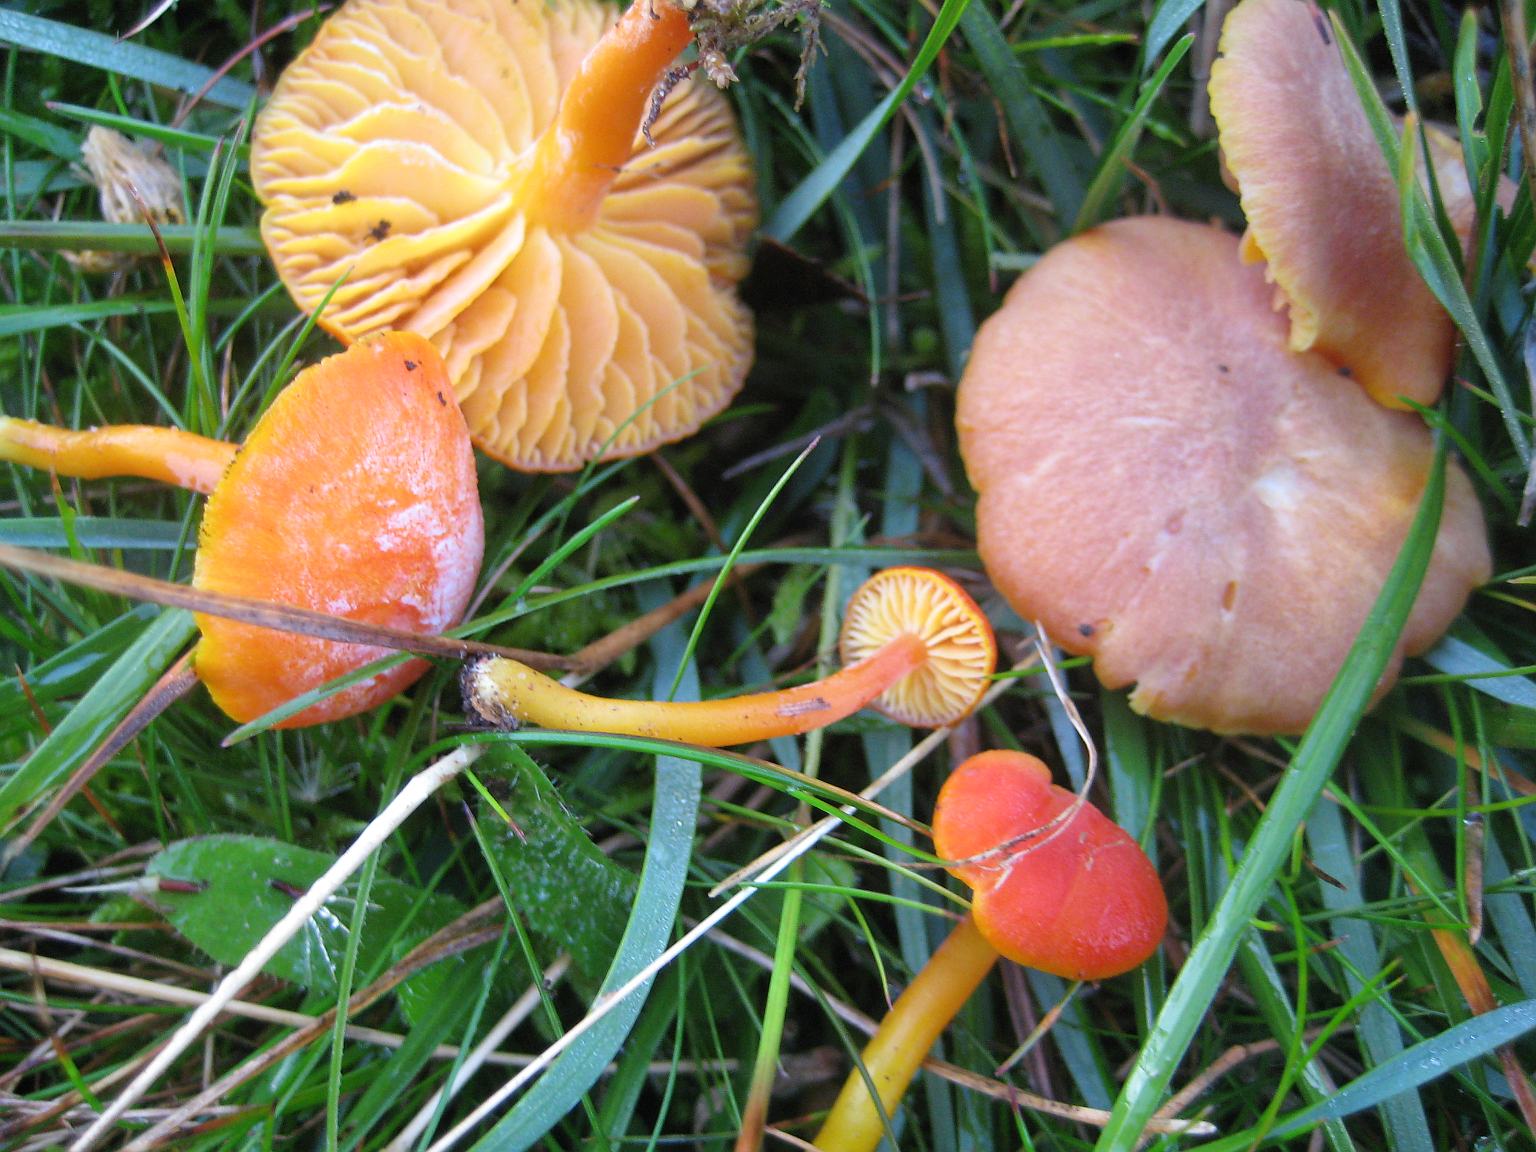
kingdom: Fungi
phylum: Basidiomycota
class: Agaricomycetes
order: Agaricales
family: Hygrophoraceae
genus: Hygrocybe
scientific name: Hygrocybe miniata
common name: mønje-vokshat
